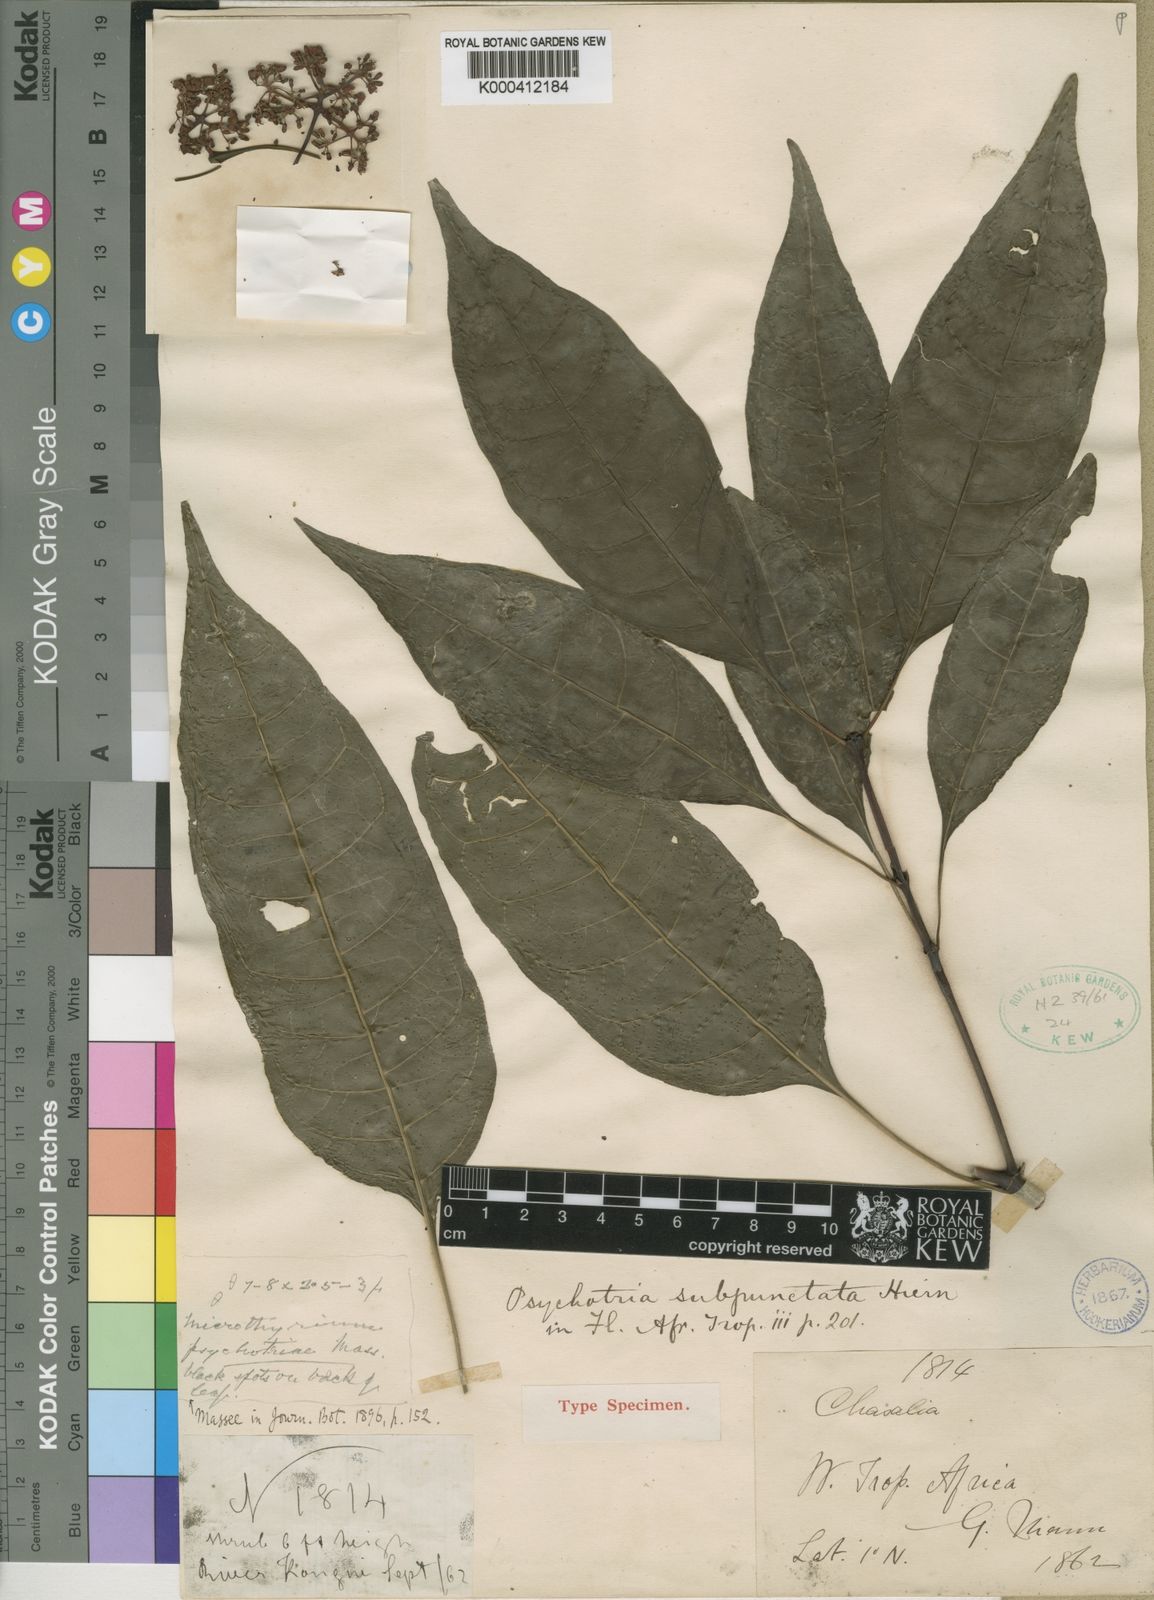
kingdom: Plantae
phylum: Tracheophyta
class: Magnoliopsida
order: Gentianales
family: Rubiaceae
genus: Psychotria
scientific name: Psychotria subpunctata
